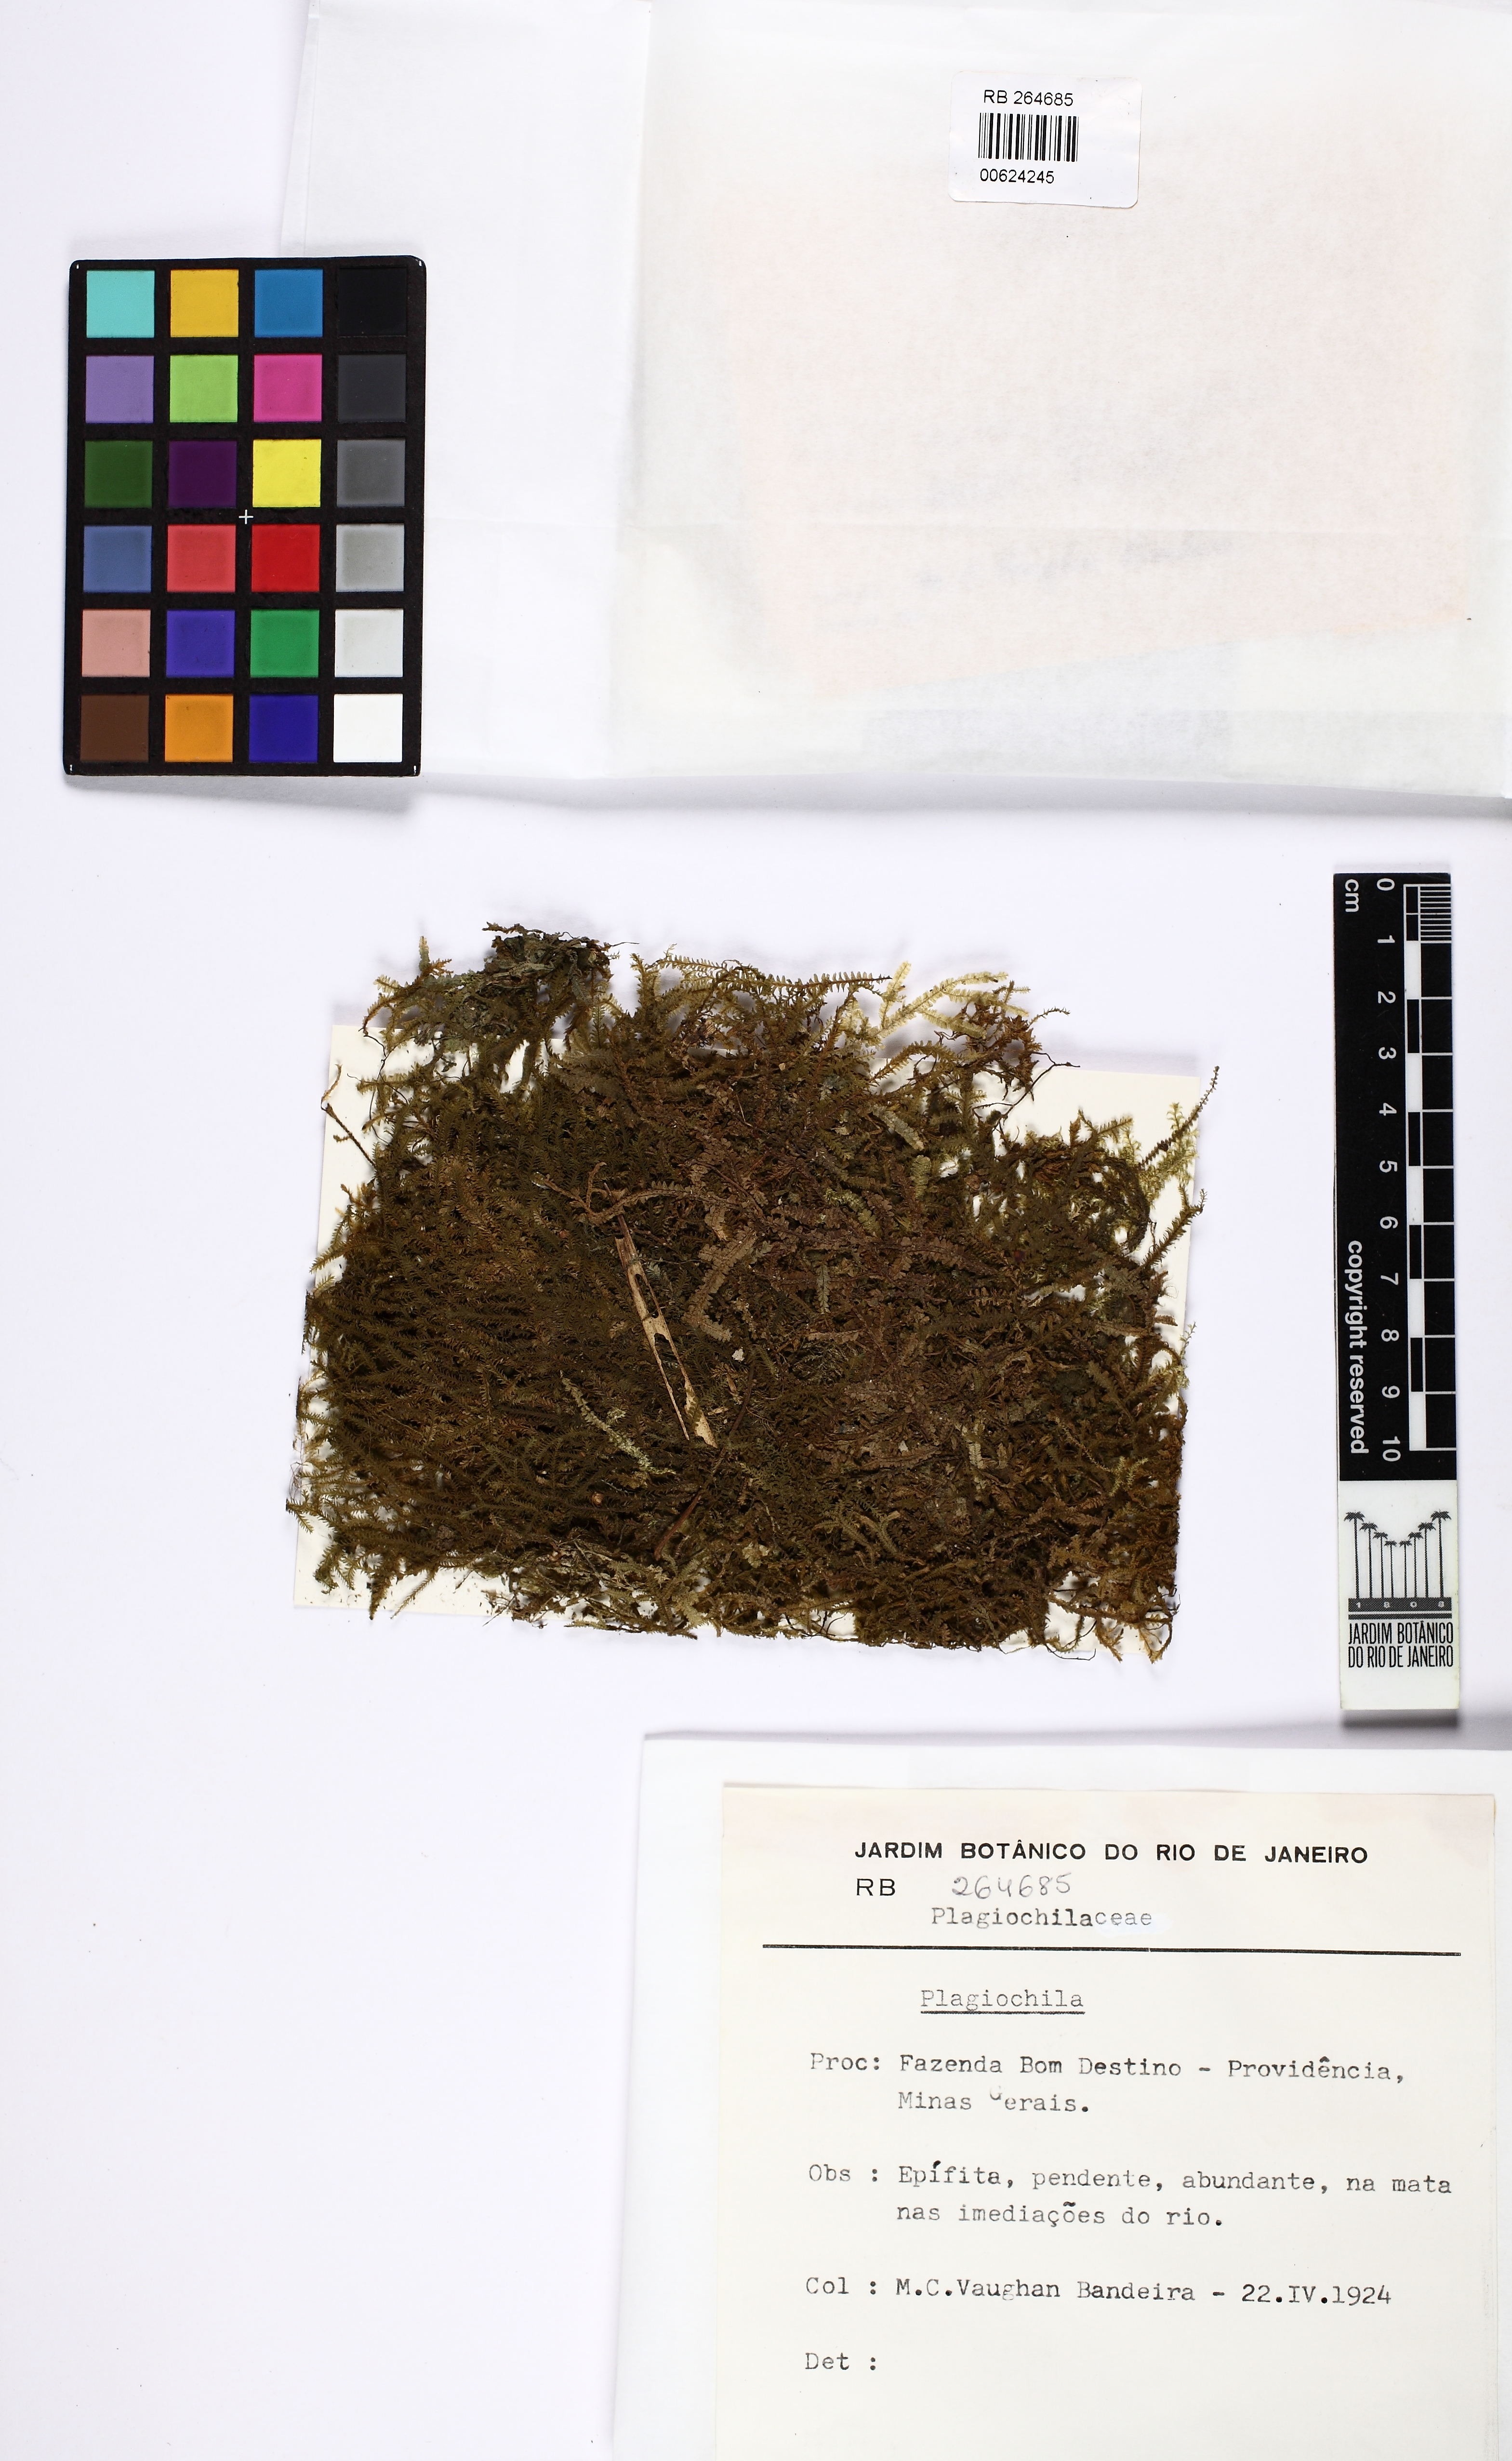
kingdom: Plantae
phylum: Marchantiophyta
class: Jungermanniopsida
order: Jungermanniales
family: Plagiochilaceae
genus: Plagiochila
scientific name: Plagiochila
